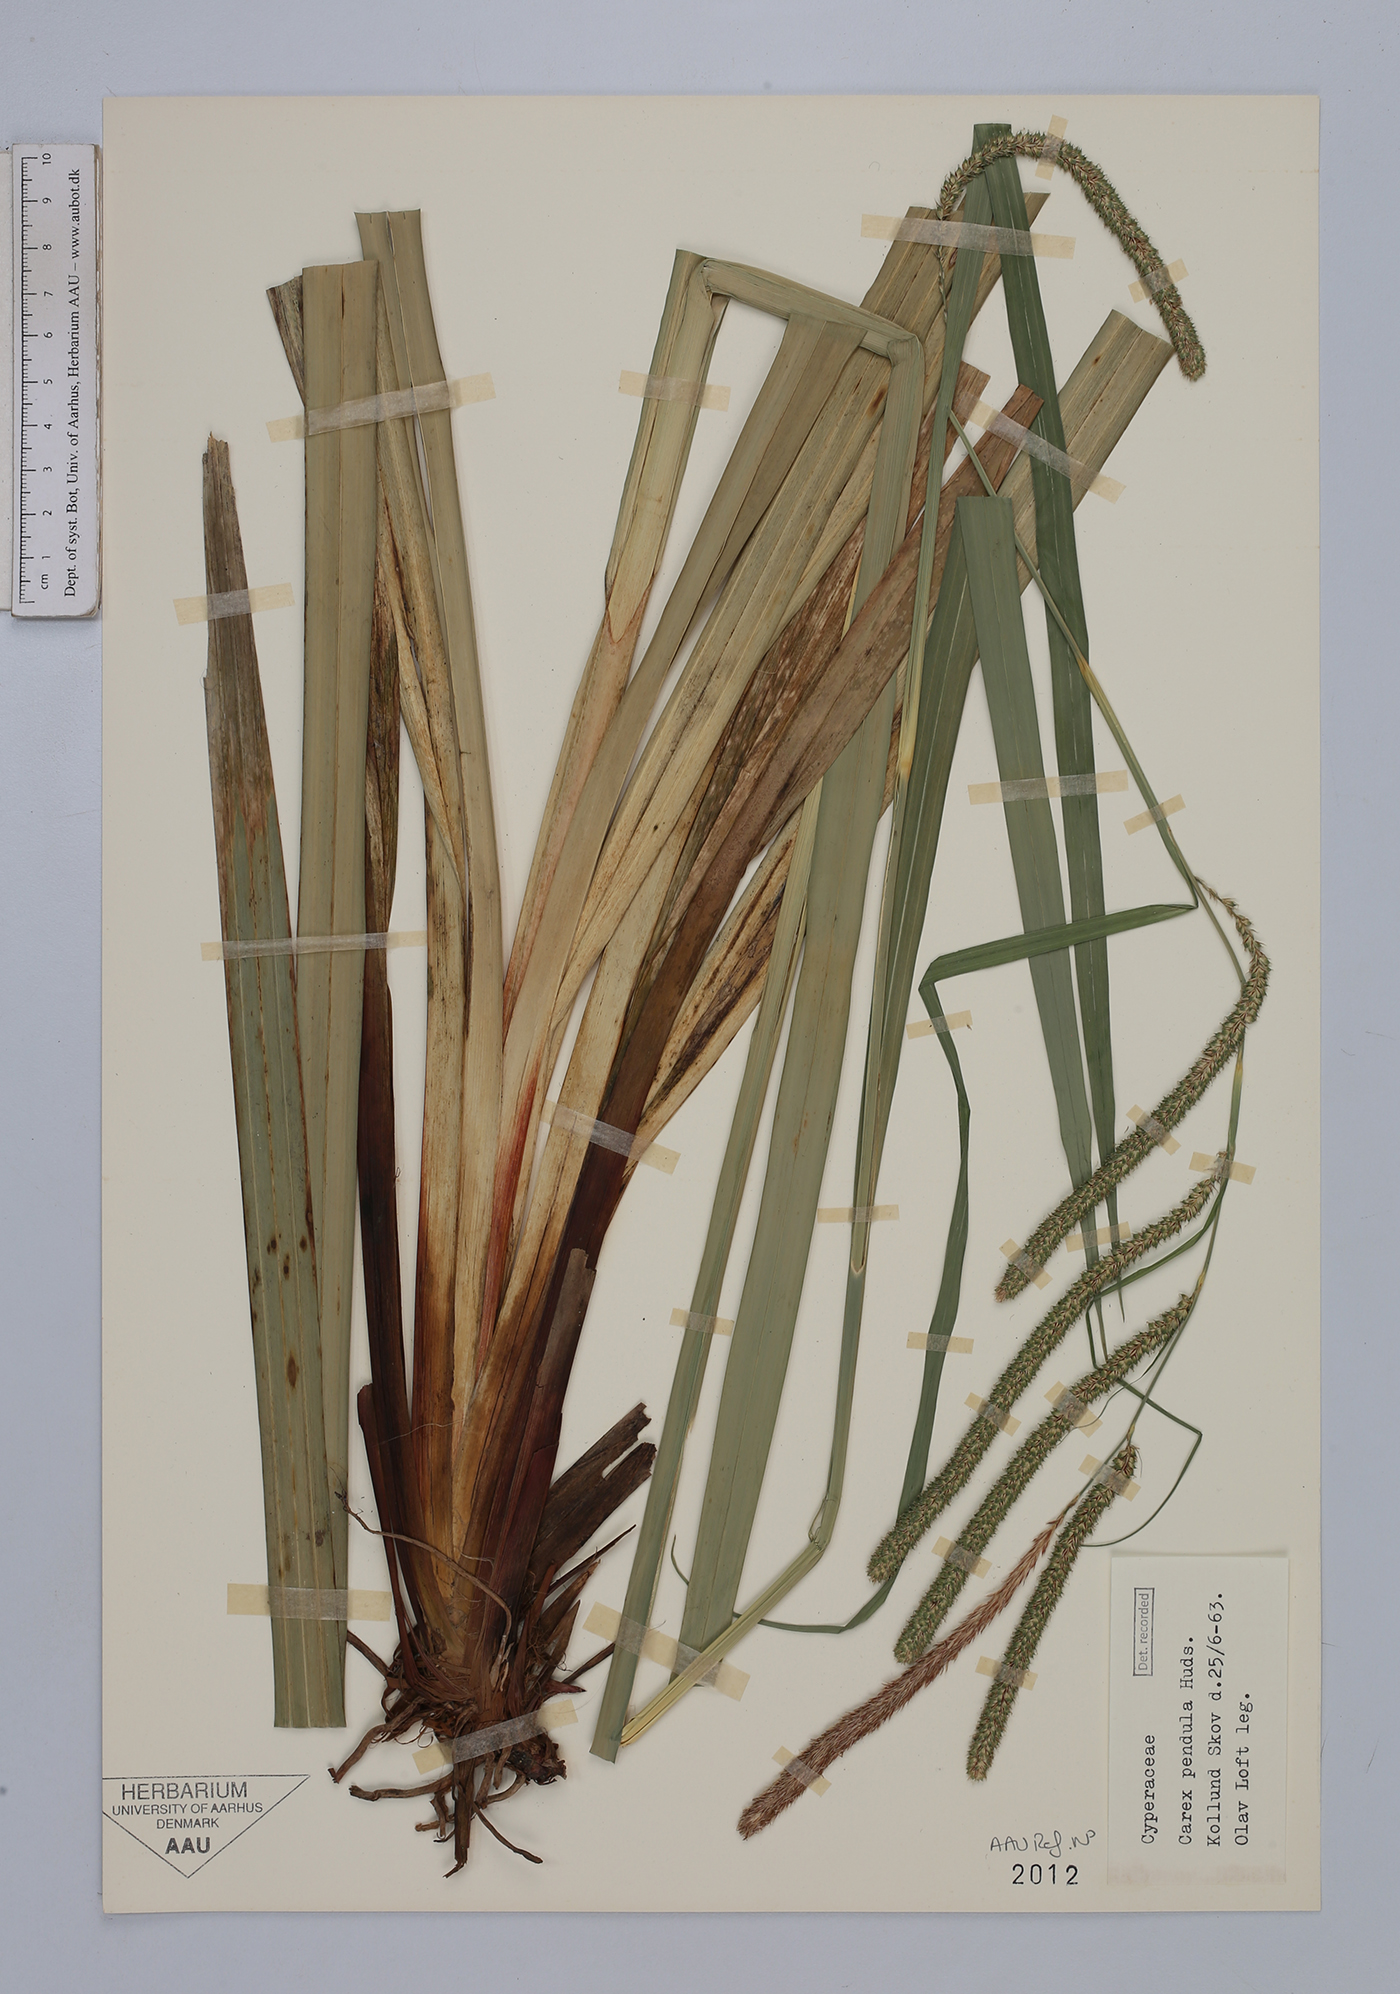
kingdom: Plantae
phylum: Tracheophyta
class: Liliopsida
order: Poales
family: Cyperaceae
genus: Carex
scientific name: Carex pendula
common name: Pendulous sedge
